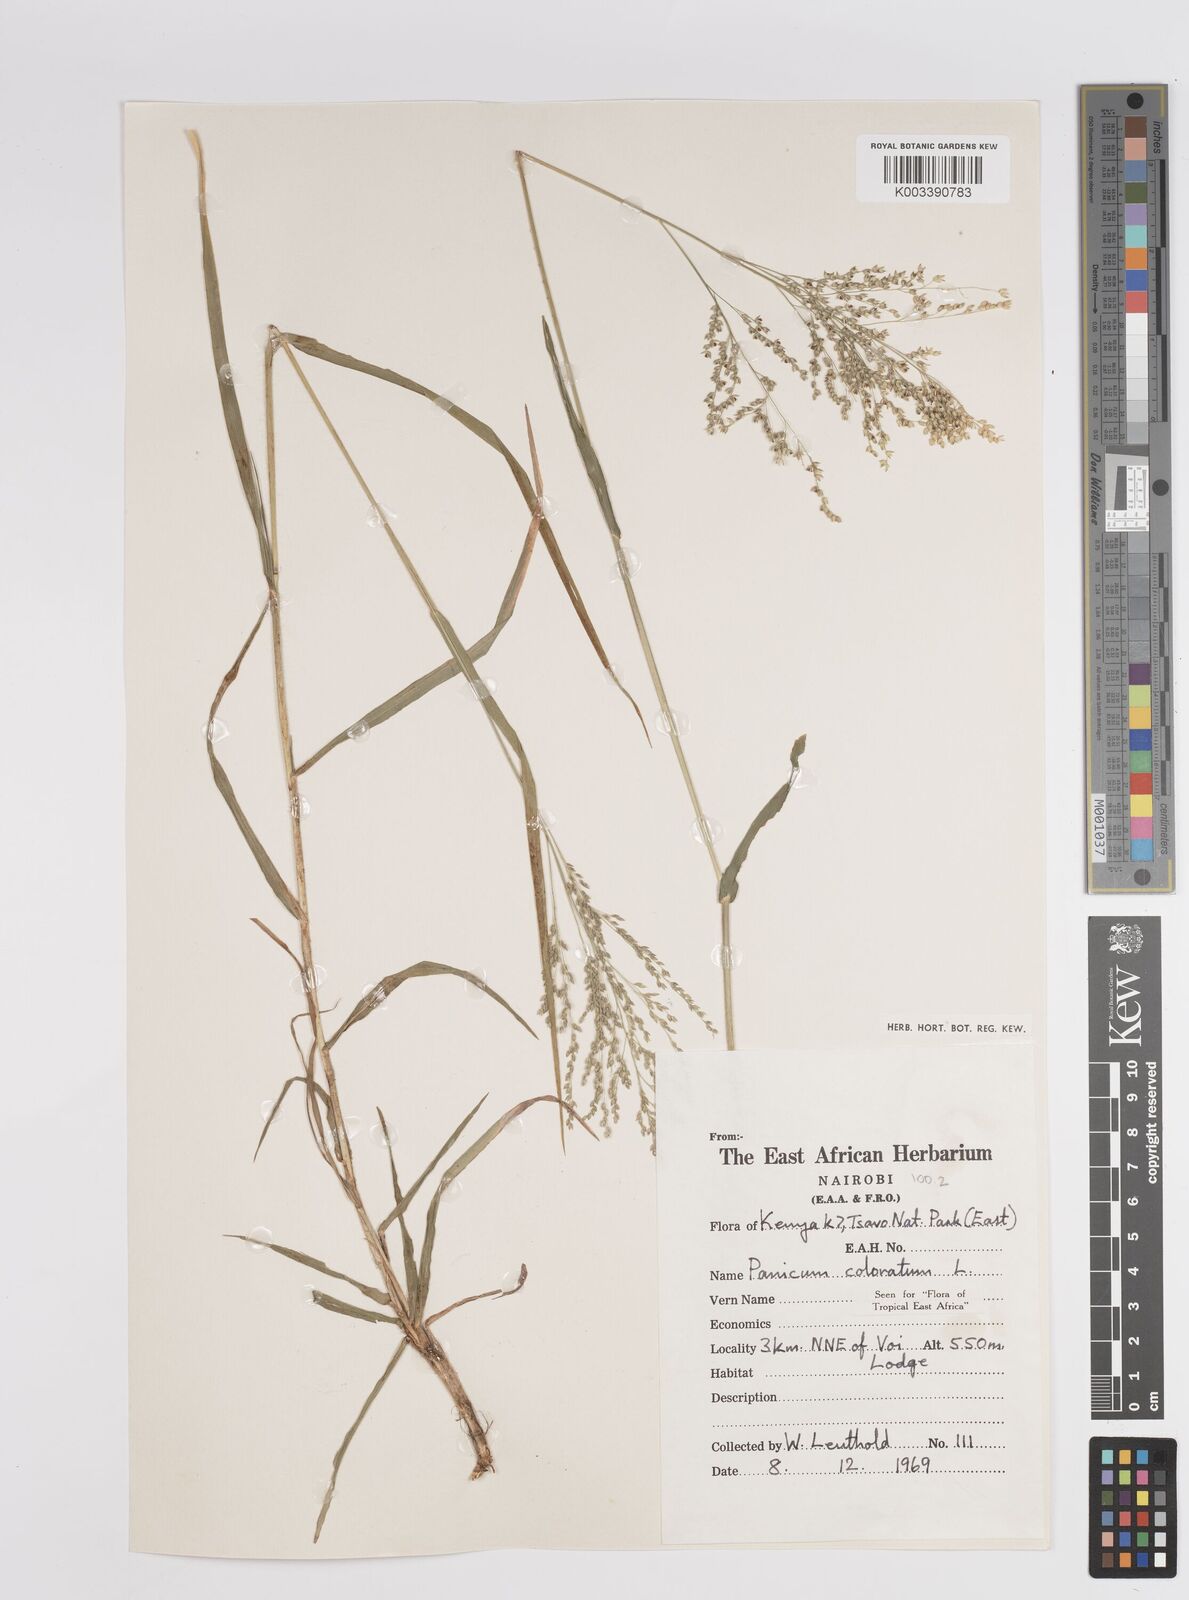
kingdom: Plantae
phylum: Tracheophyta
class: Liliopsida
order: Poales
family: Poaceae
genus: Panicum
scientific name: Panicum coloratum
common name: Kleingrass
